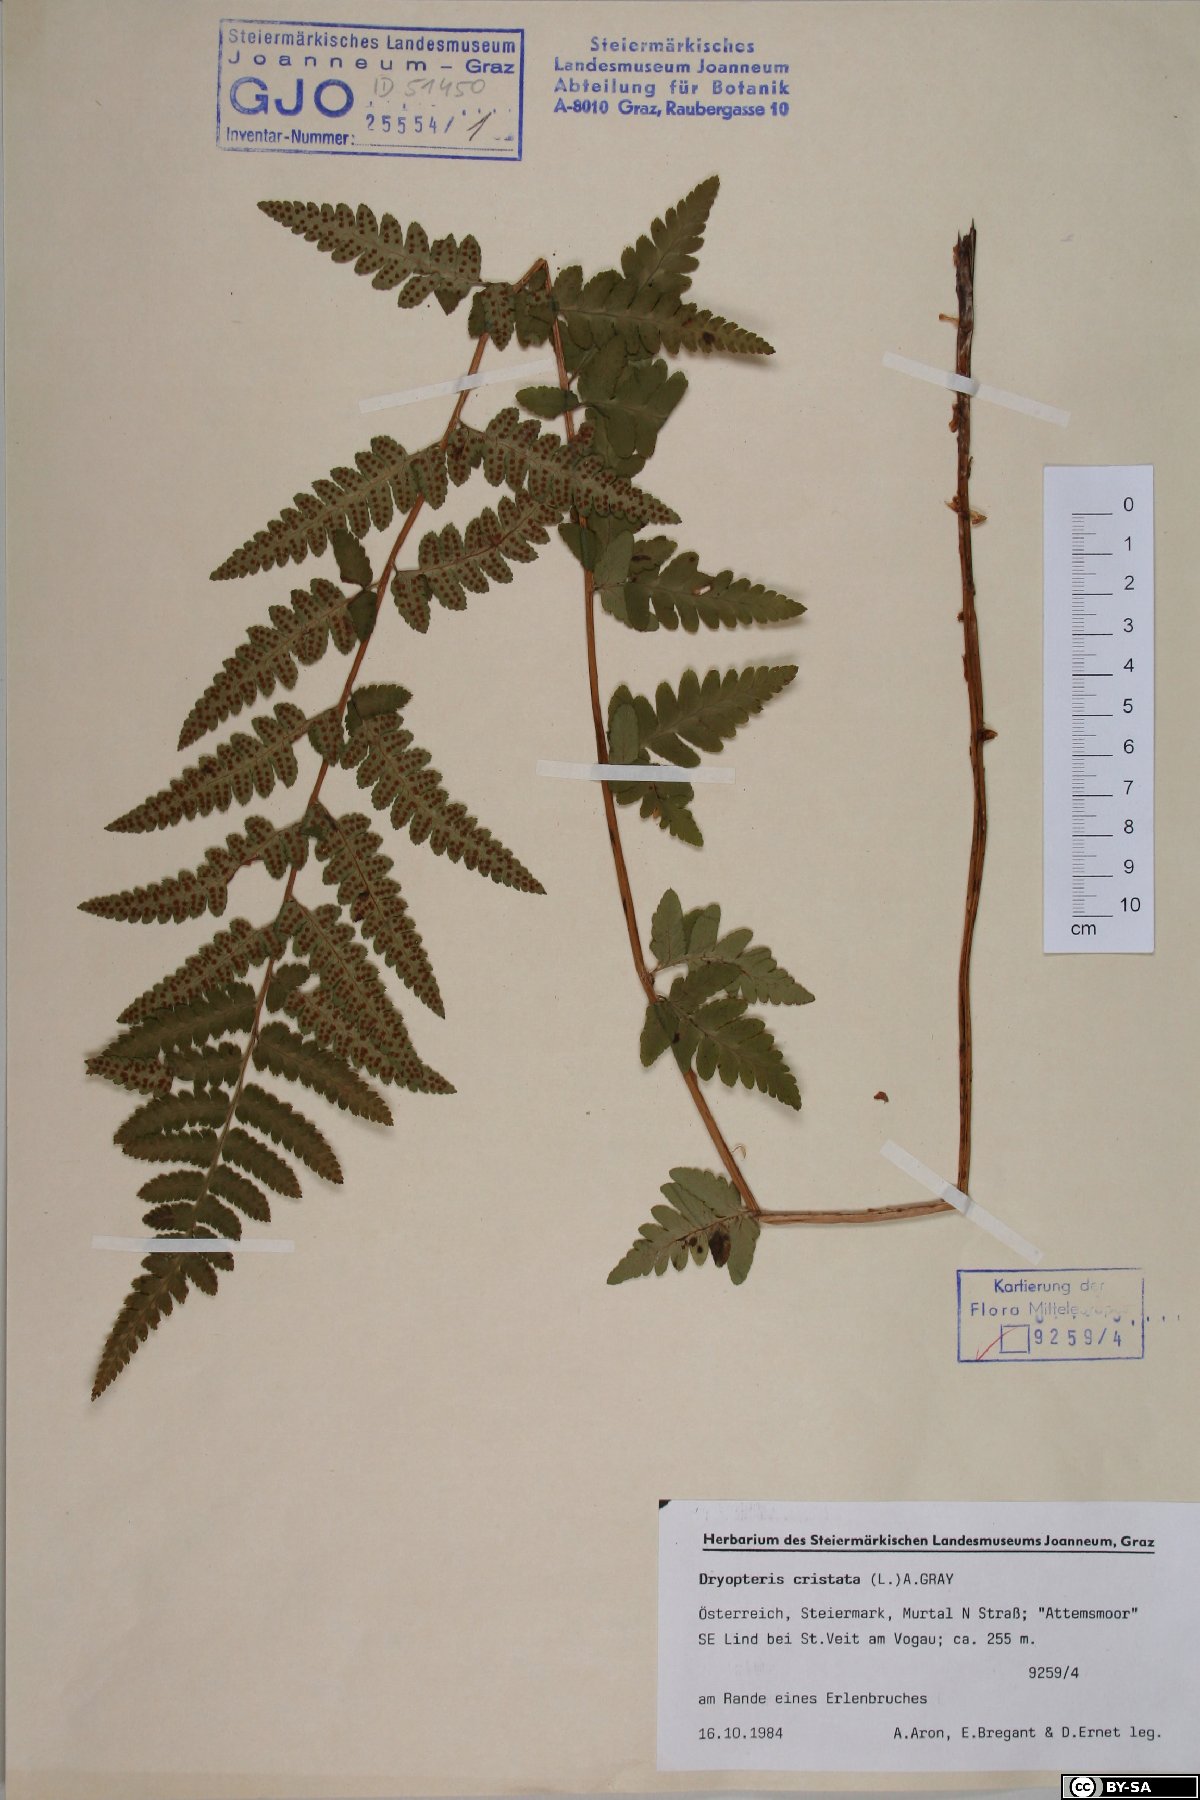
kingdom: Plantae
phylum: Tracheophyta
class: Polypodiopsida
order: Polypodiales
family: Dryopteridaceae
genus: Dryopteris
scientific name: Dryopteris cristata
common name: Crested wood fern
